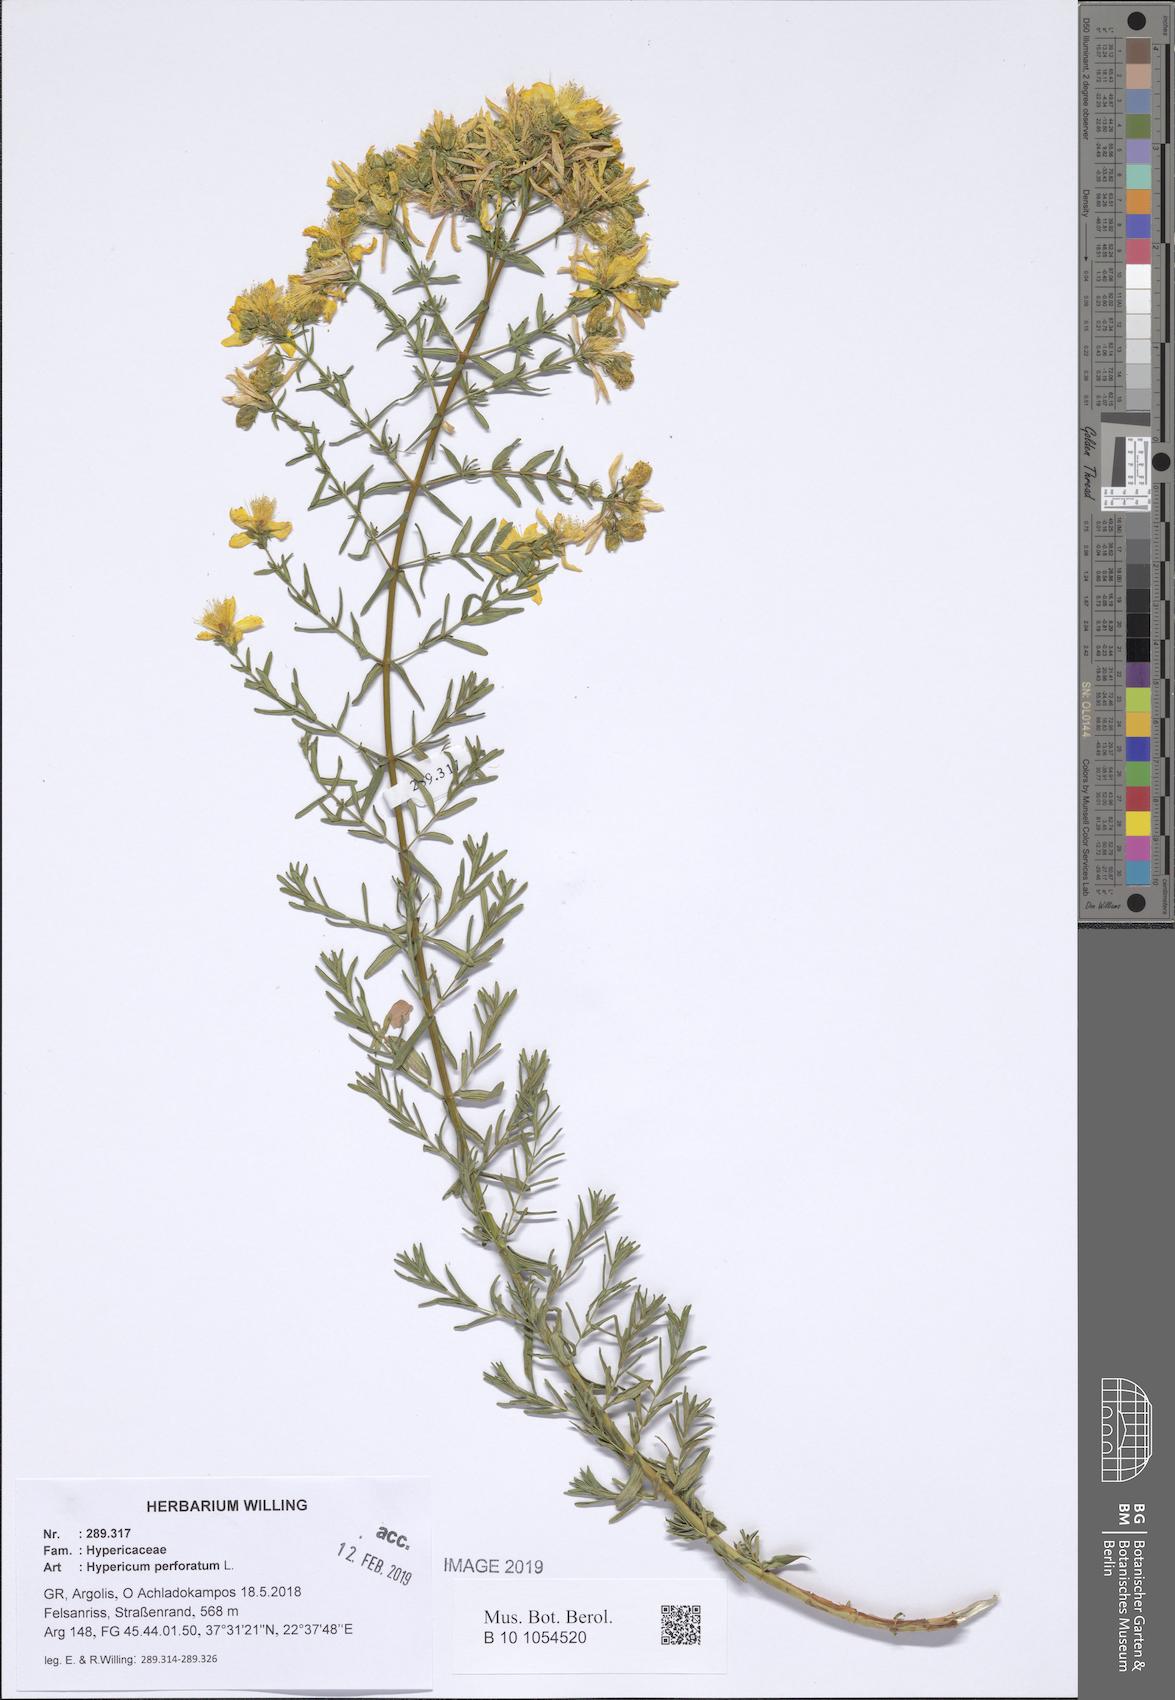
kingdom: Plantae
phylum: Tracheophyta
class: Magnoliopsida
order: Malpighiales
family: Hypericaceae
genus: Hypericum
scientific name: Hypericum perforatum
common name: Common st. johnswort
